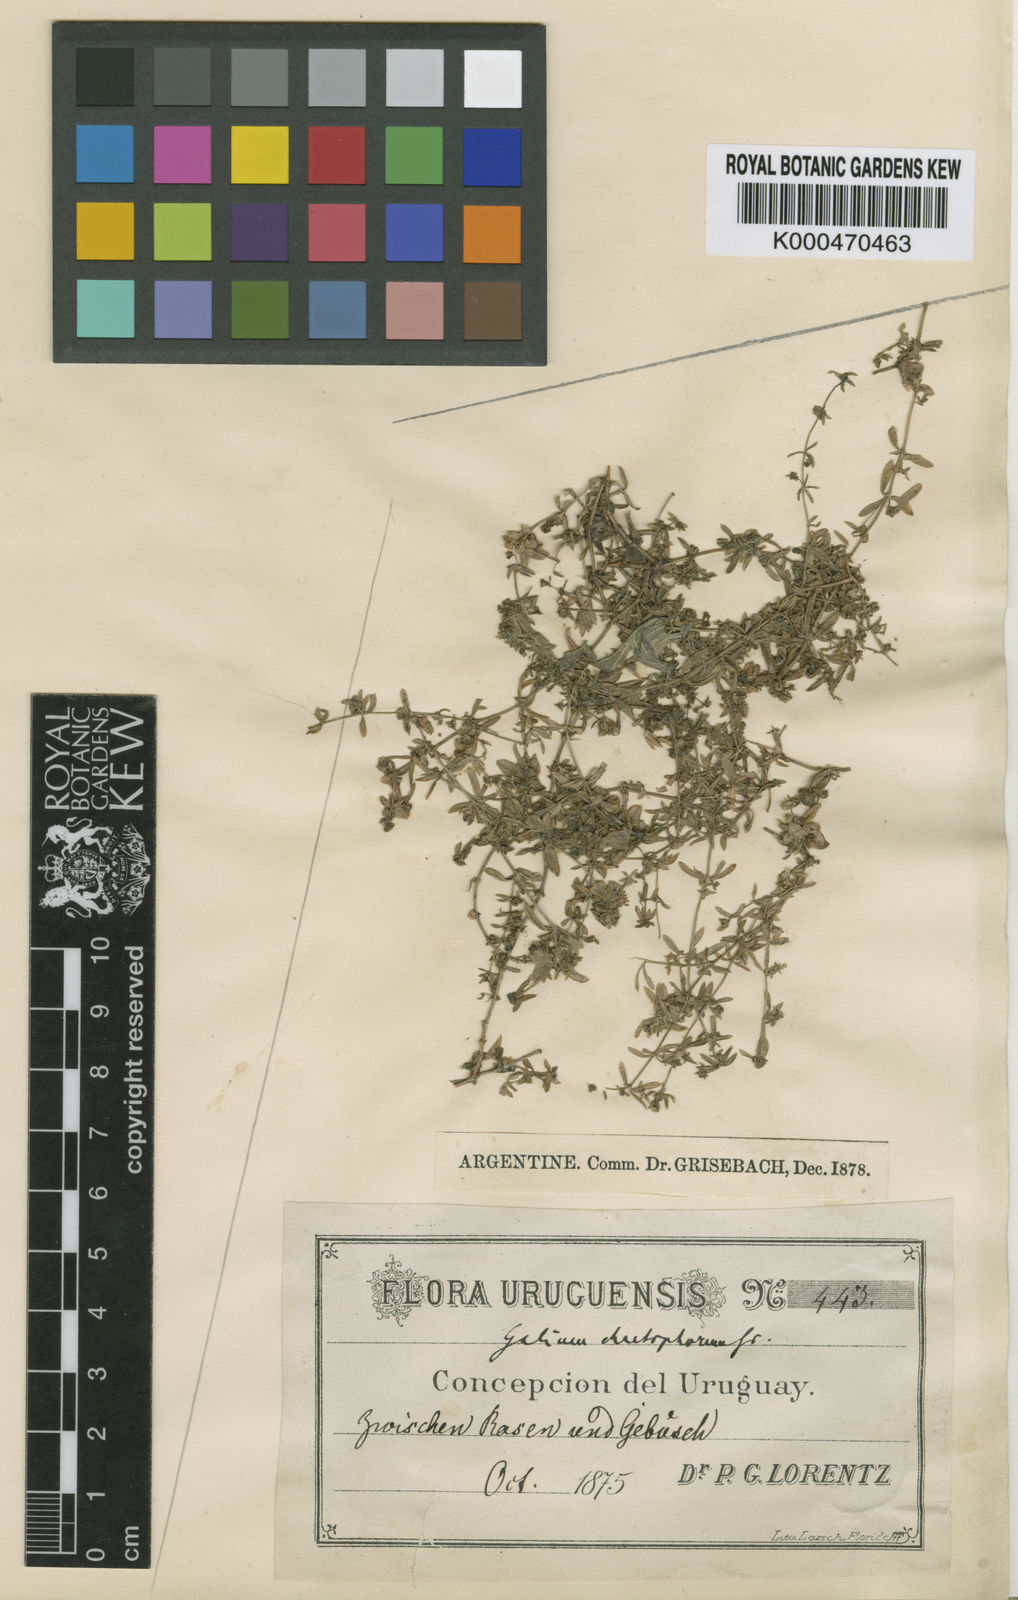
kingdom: Plantae
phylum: Tracheophyta
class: Magnoliopsida
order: Gentianales
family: Rubiaceae
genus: Galium
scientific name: Galium richardianum
